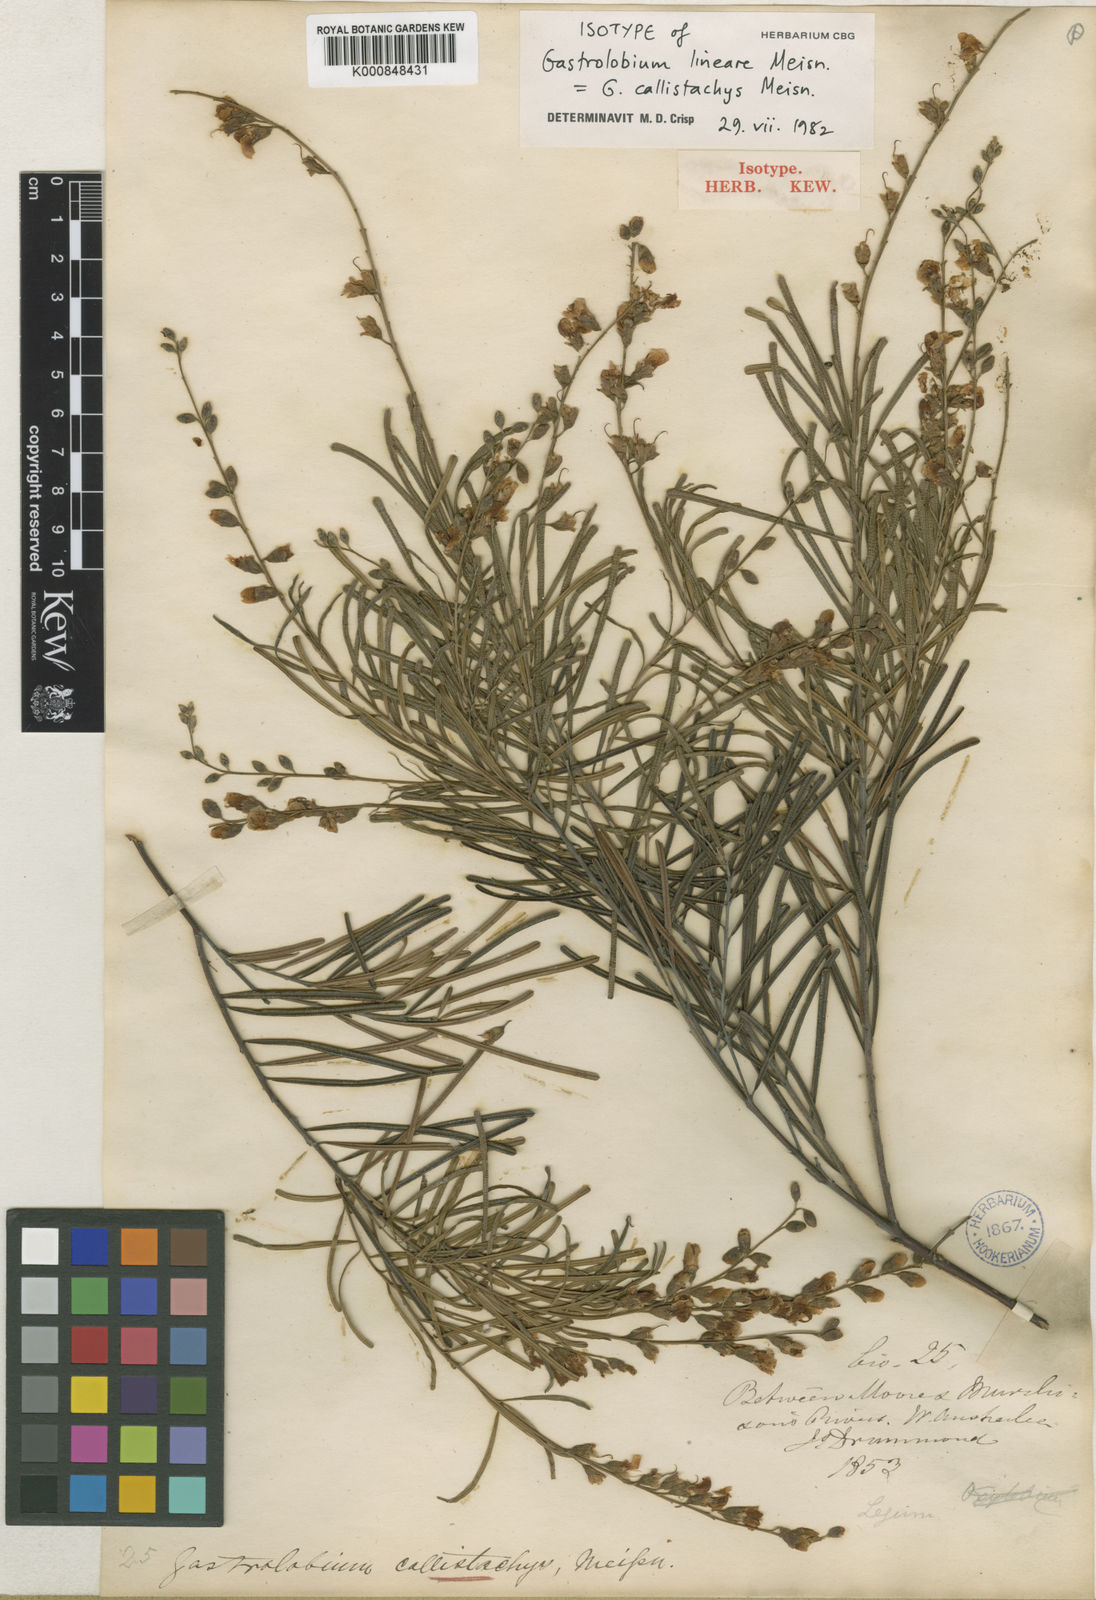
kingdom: Plantae
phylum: Tracheophyta
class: Magnoliopsida
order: Fabales
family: Fabaceae
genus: Gastrolobium
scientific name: Gastrolobium callistachys
